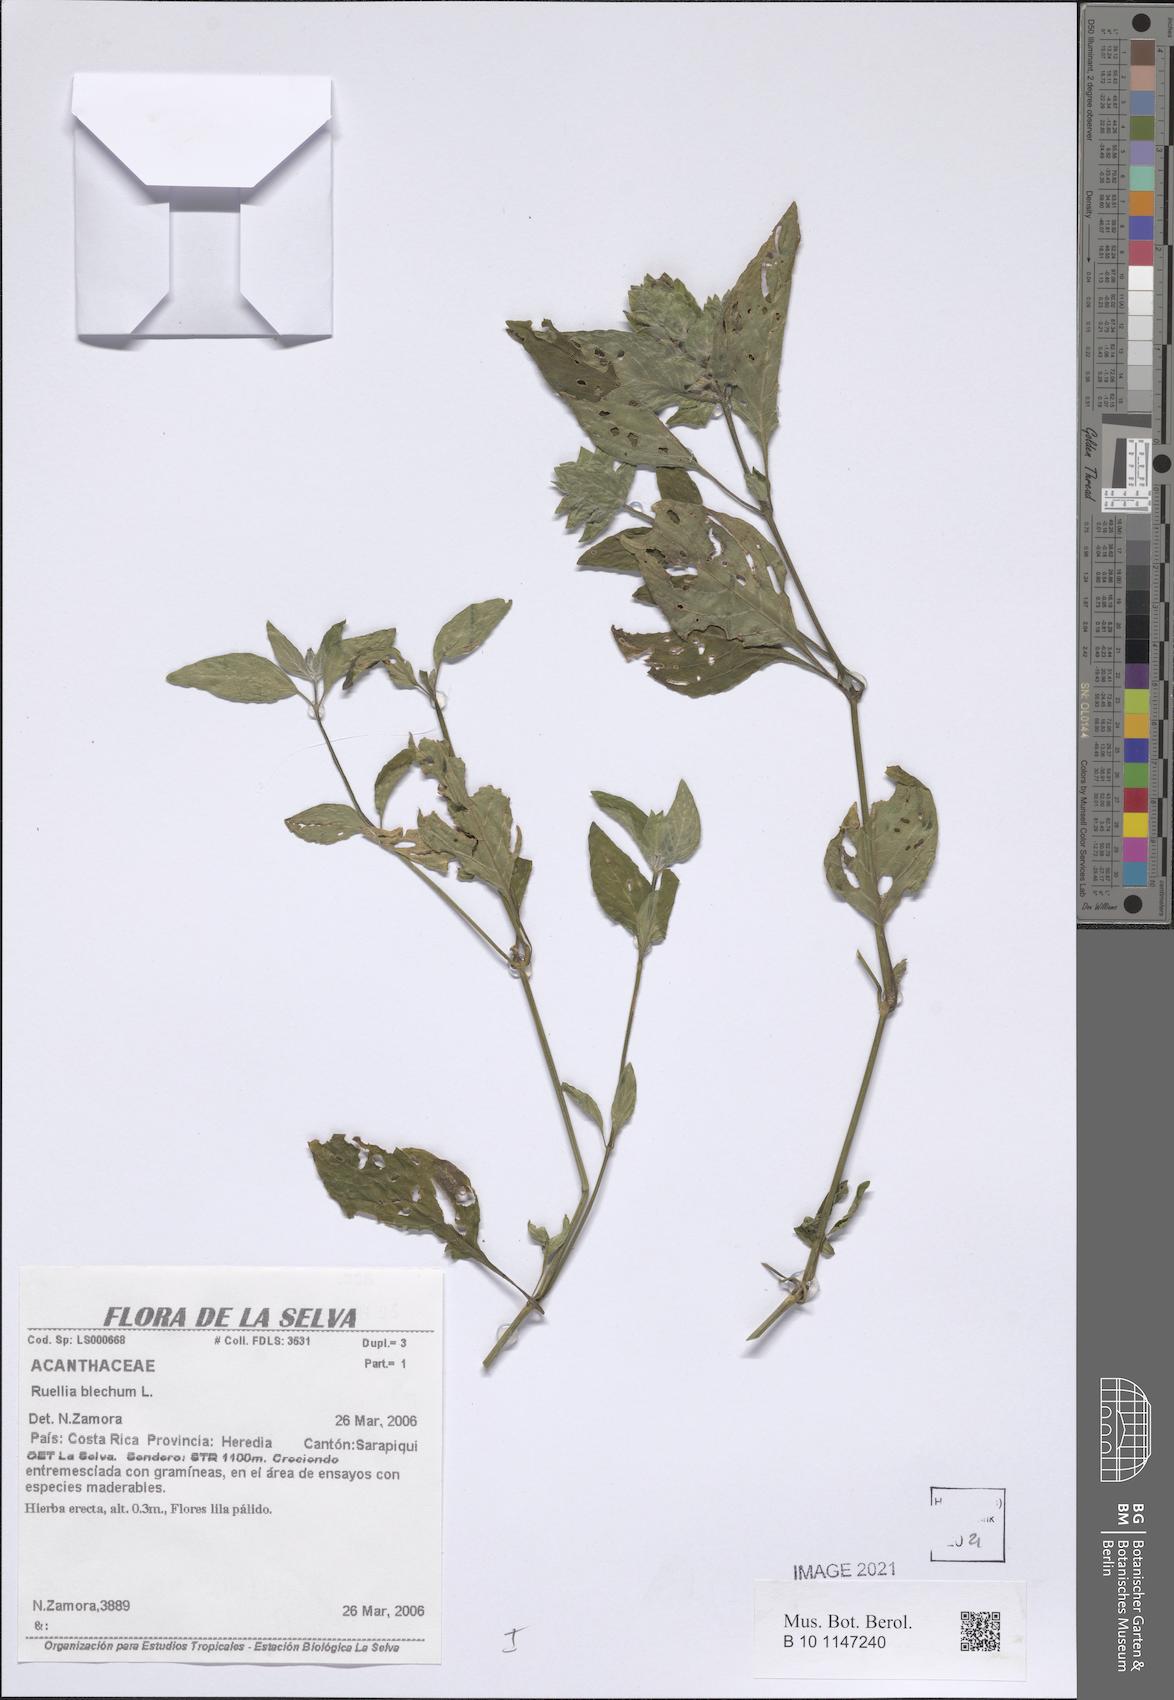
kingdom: Plantae
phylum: Tracheophyta
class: Magnoliopsida
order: Lamiales
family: Acanthaceae
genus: Ruellia
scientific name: Ruellia blechum
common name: Browne's blechum
